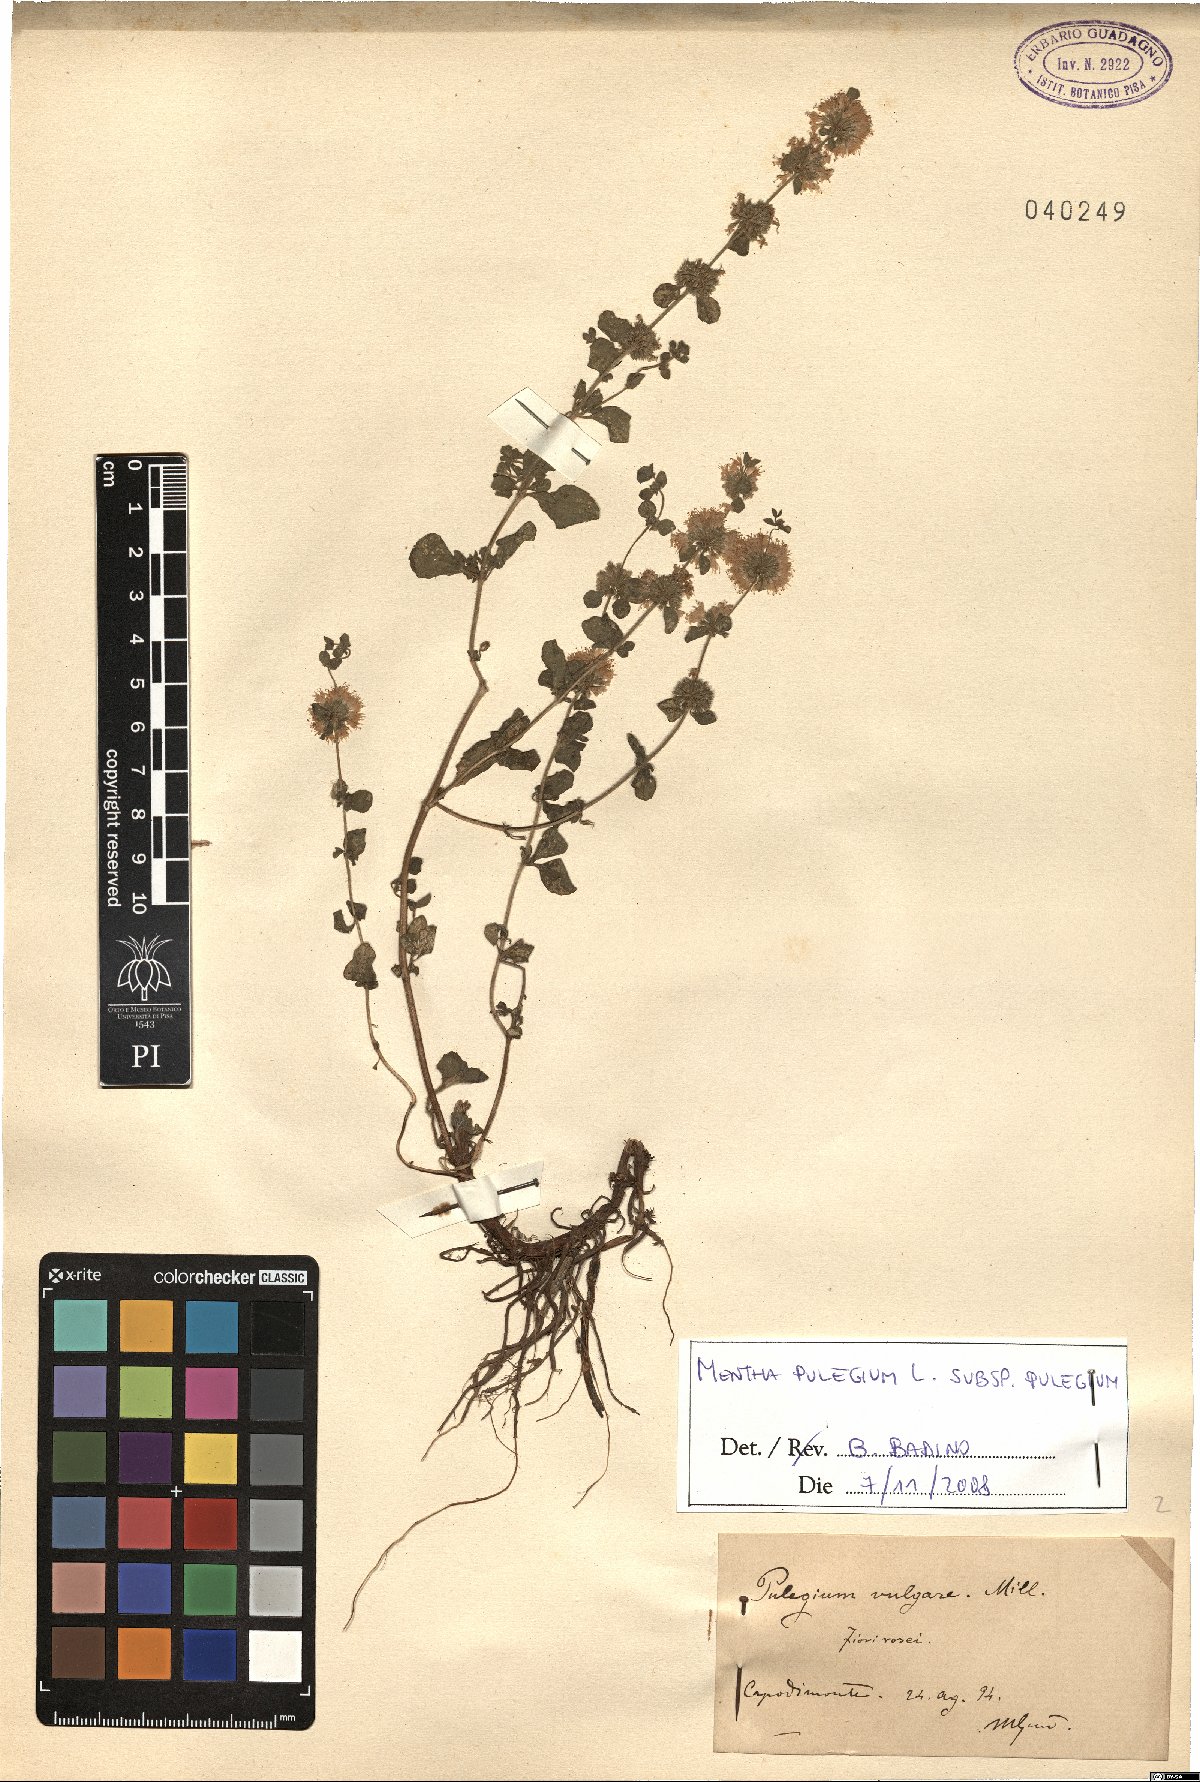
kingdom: Plantae
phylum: Tracheophyta
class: Magnoliopsida
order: Lamiales
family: Lamiaceae
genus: Mentha
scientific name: Mentha pulegium
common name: Pennyroyal
